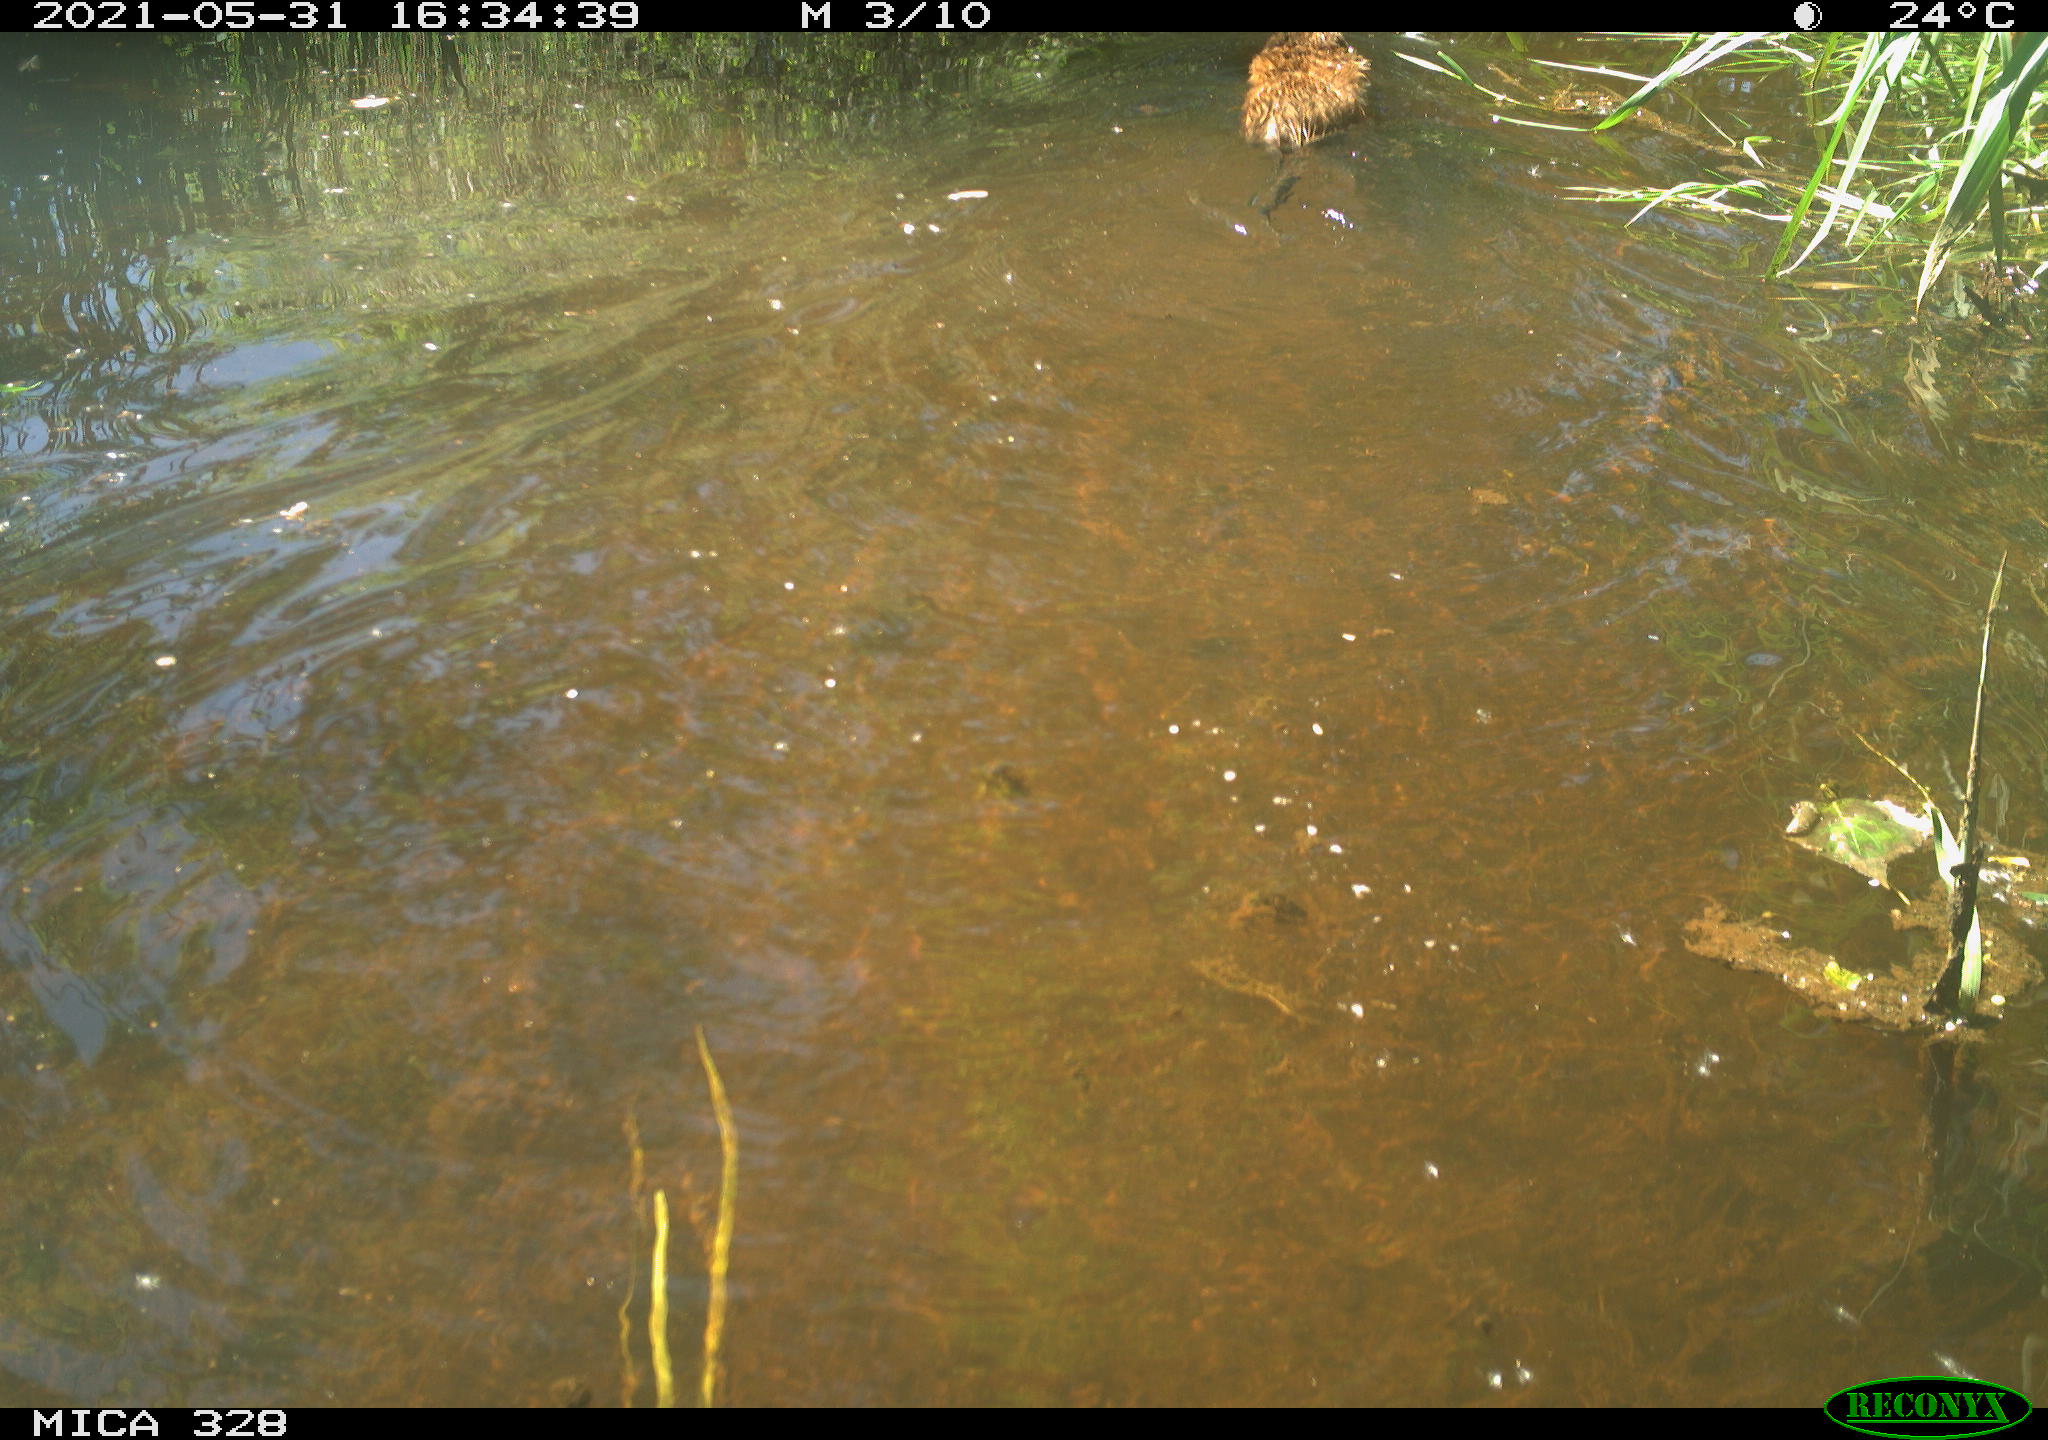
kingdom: Animalia
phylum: Chordata
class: Mammalia
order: Rodentia
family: Cricetidae
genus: Ondatra
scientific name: Ondatra zibethicus
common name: Muskrat
